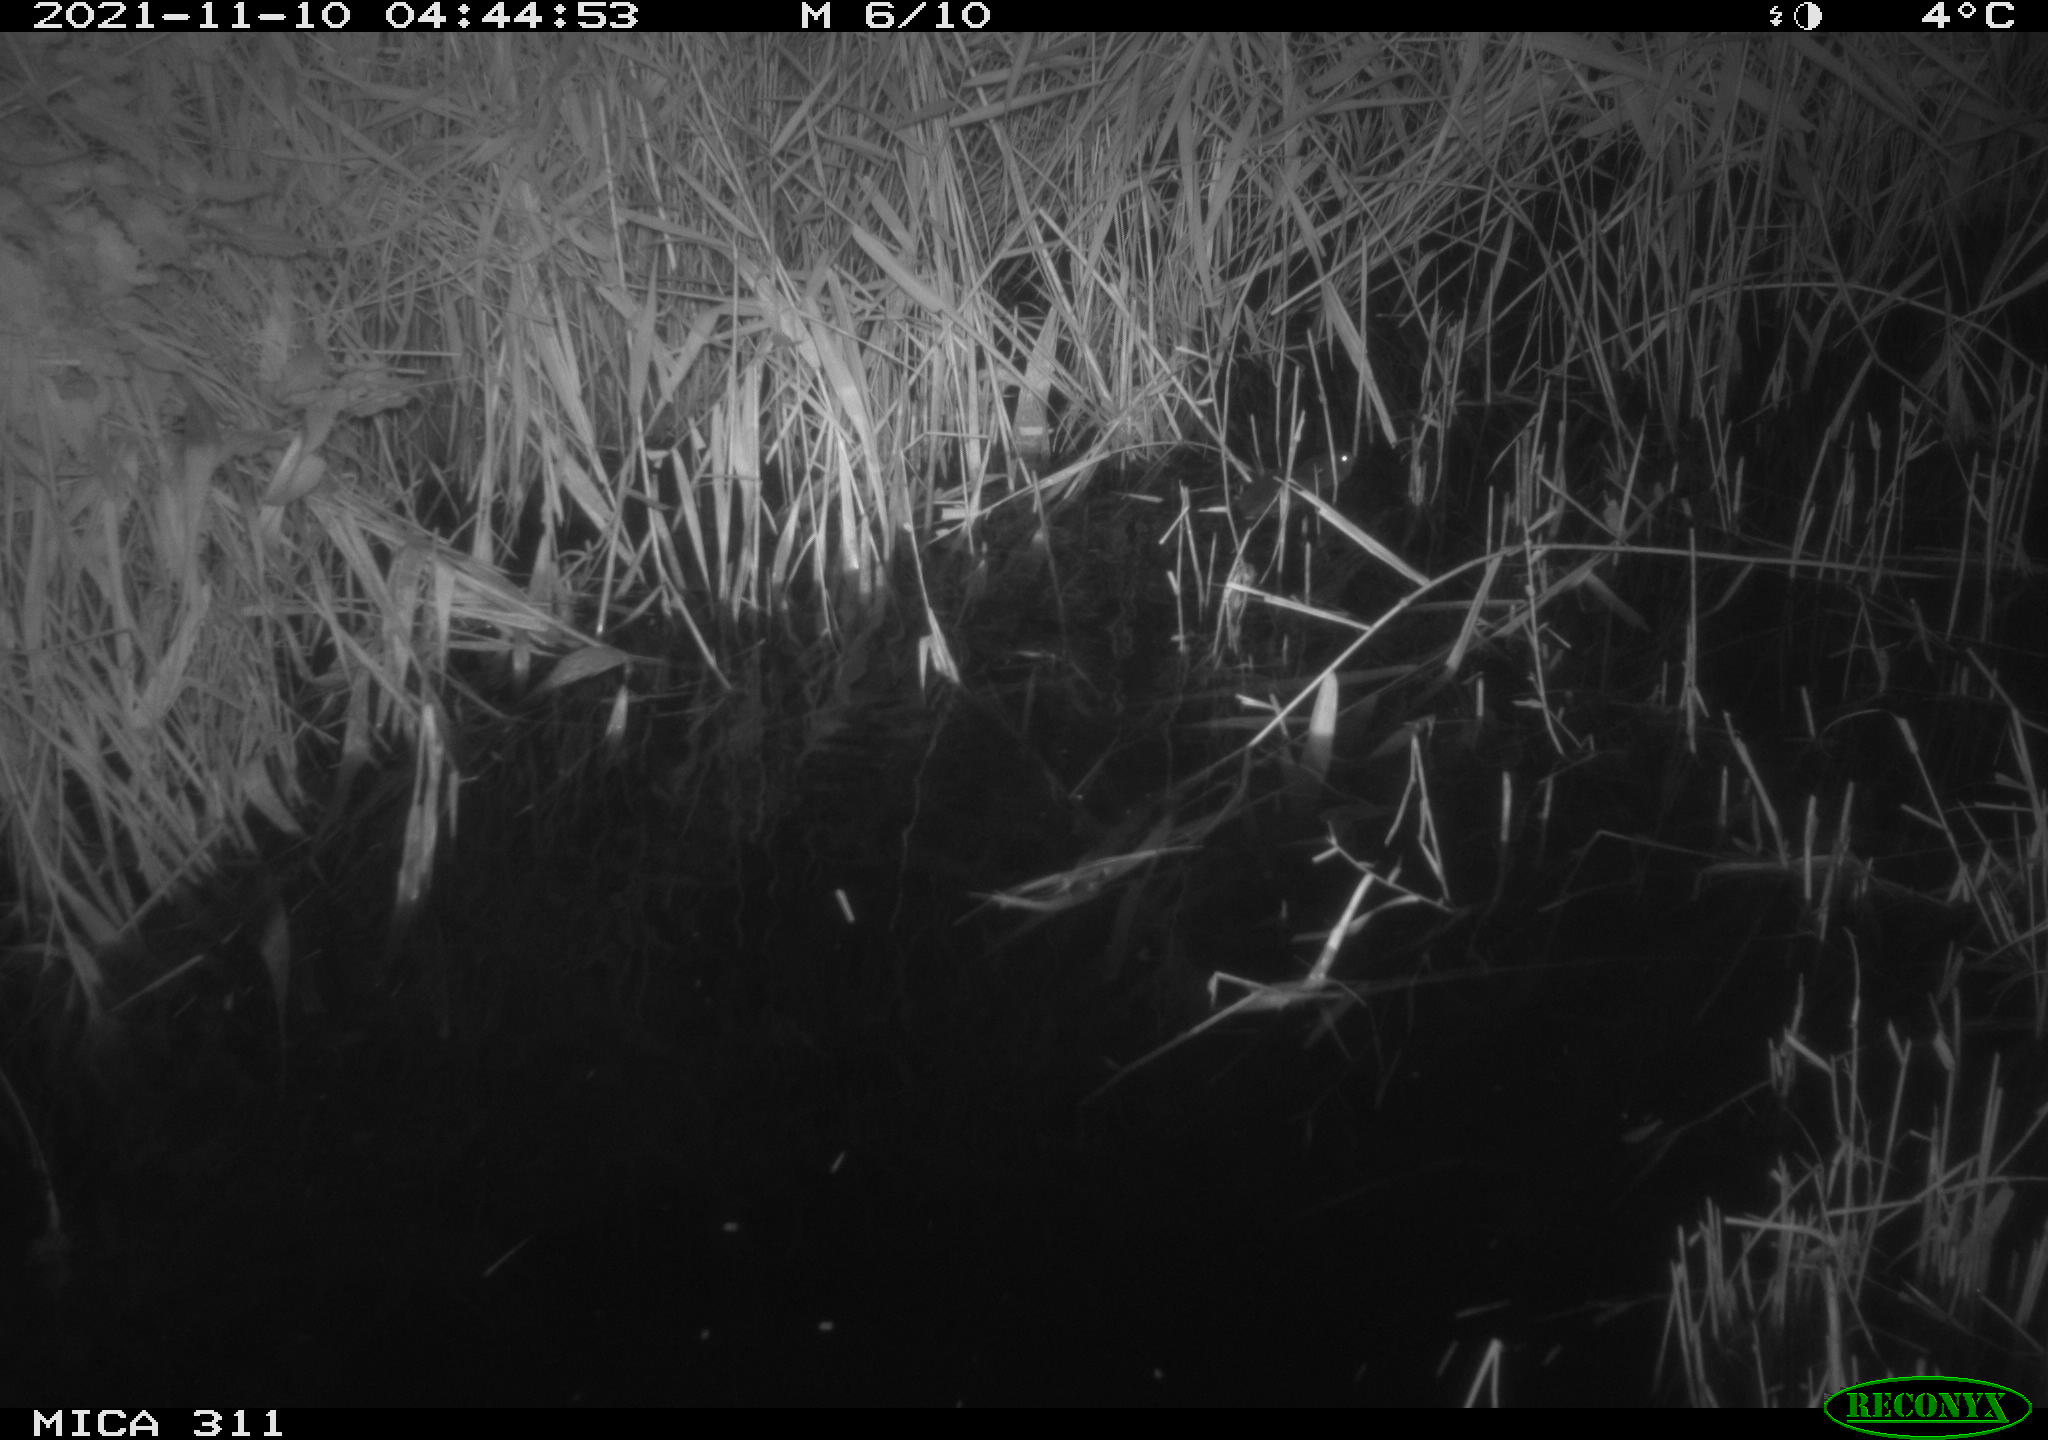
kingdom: Animalia
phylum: Chordata
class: Mammalia
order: Rodentia
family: Cricetidae
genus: Ondatra
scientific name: Ondatra zibethicus
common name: Muskrat
